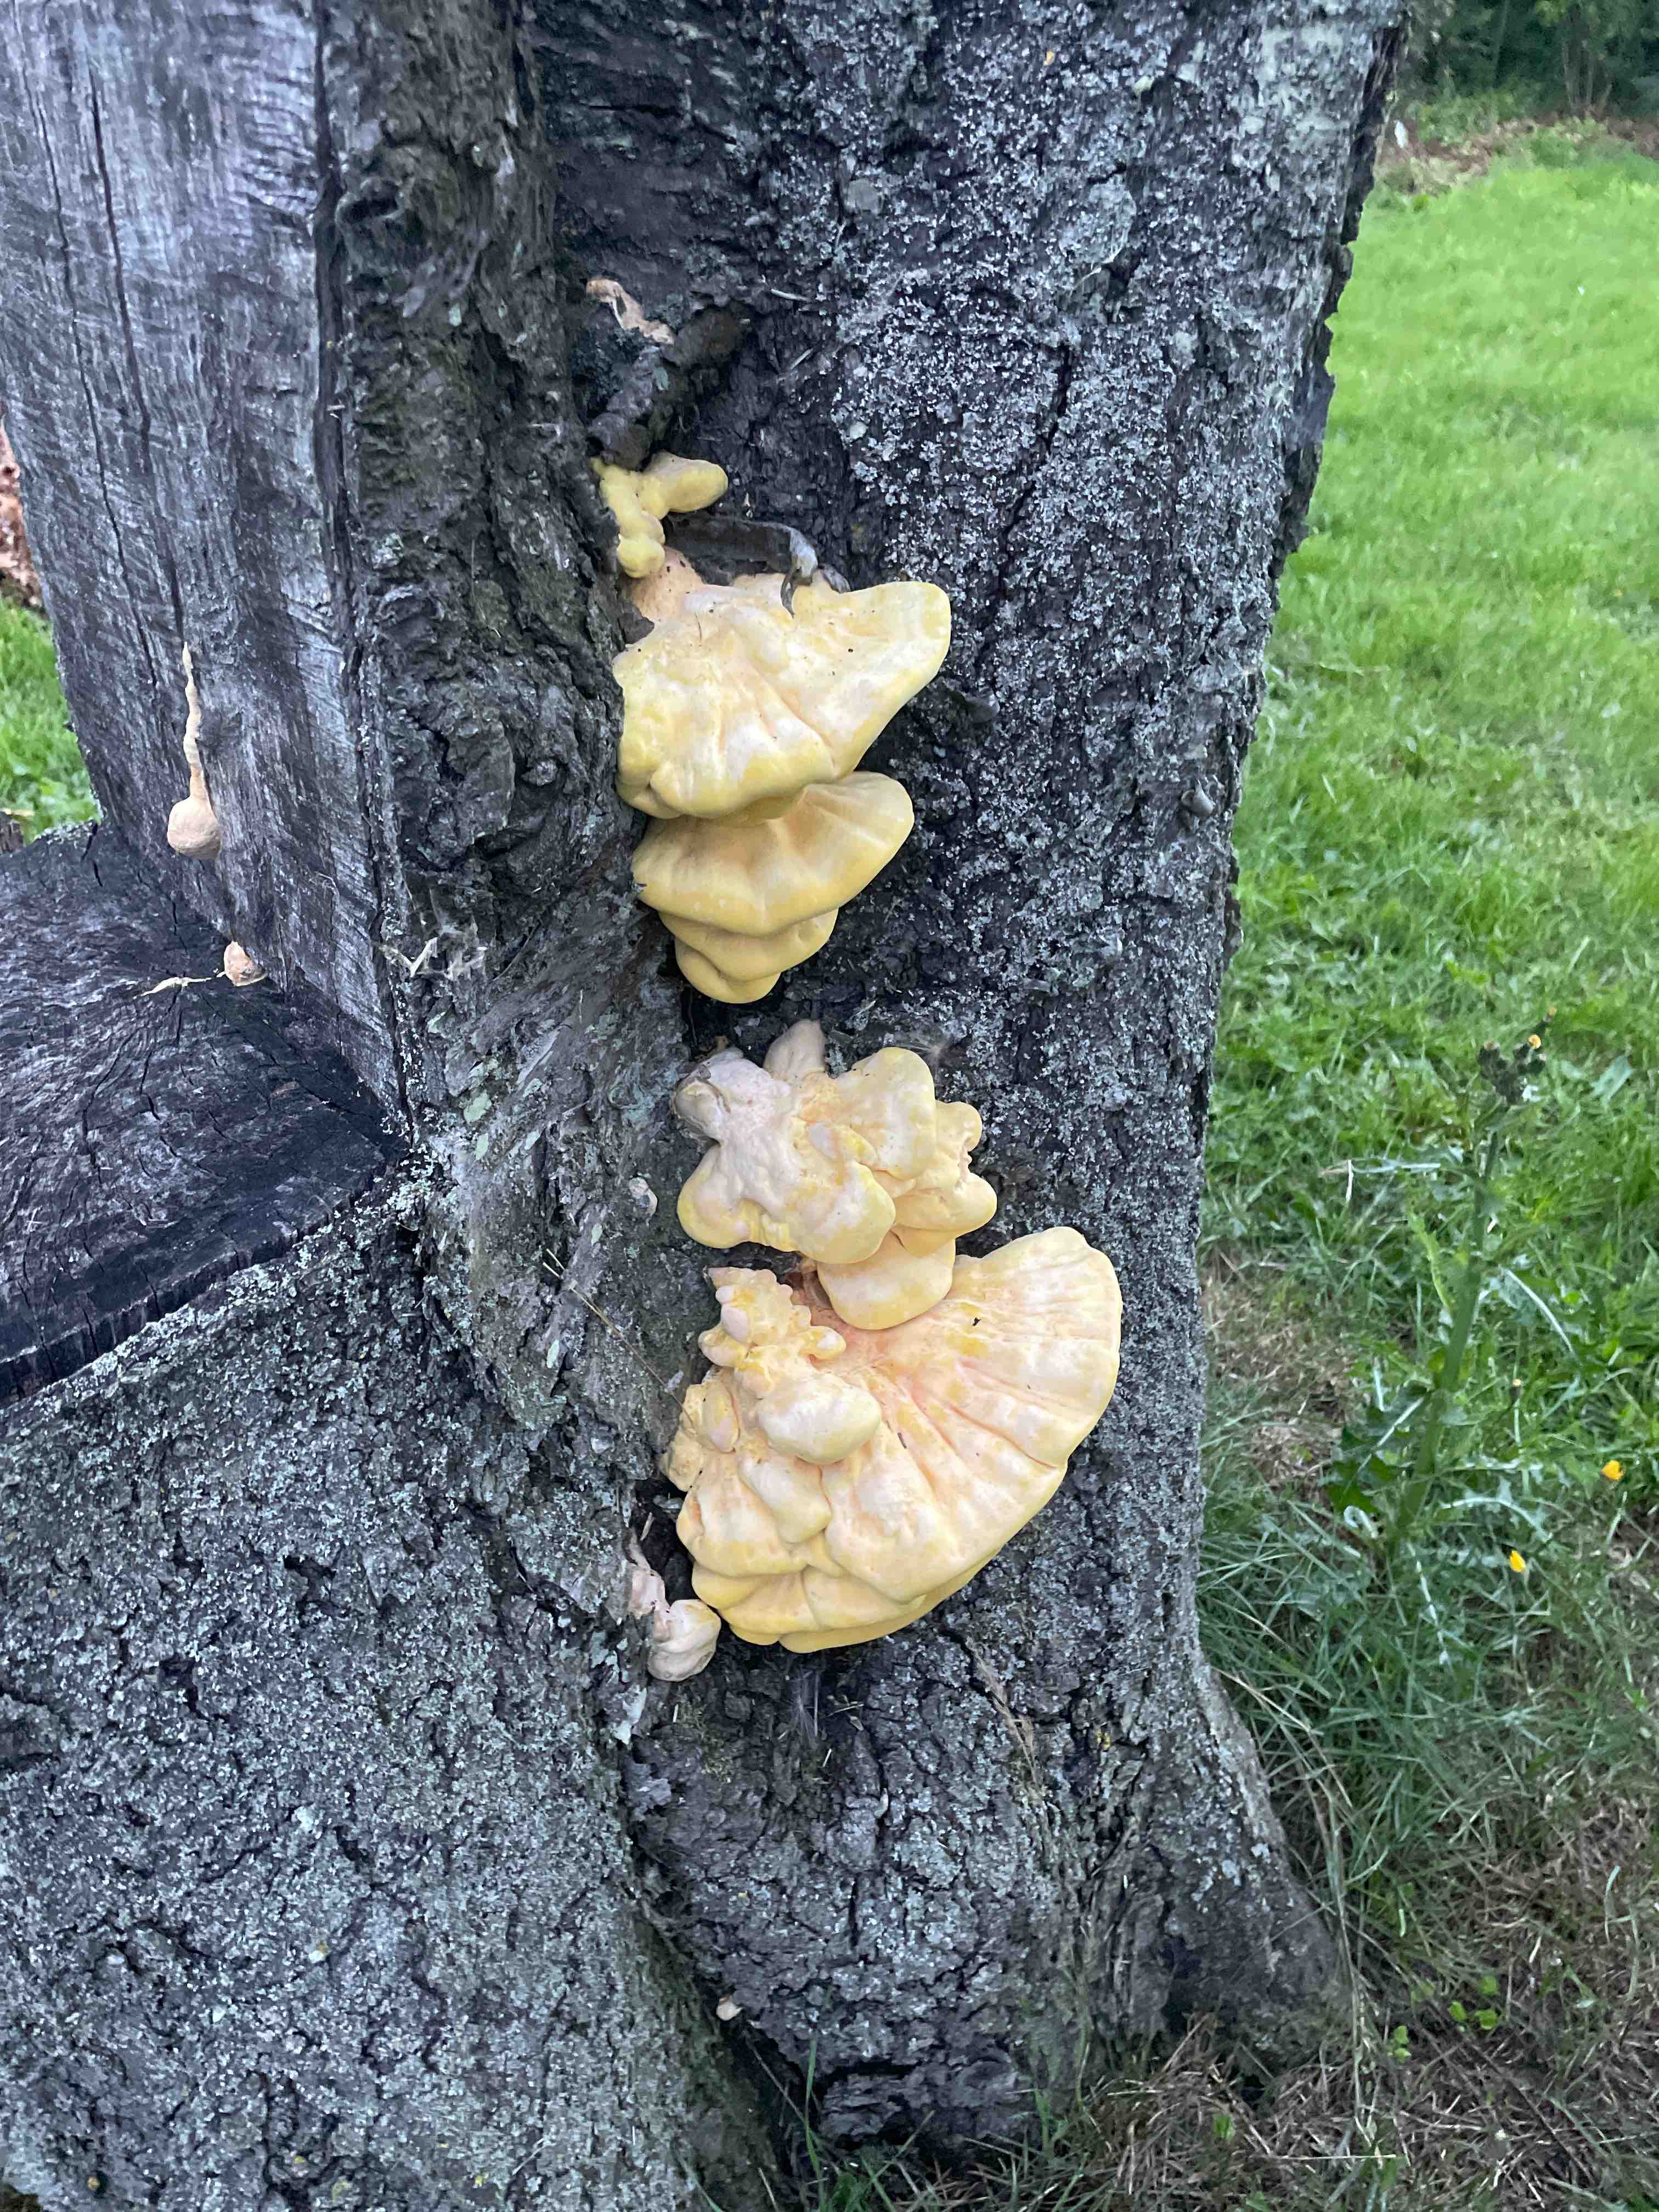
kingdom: Fungi
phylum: Basidiomycota
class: Agaricomycetes
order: Polyporales
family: Laetiporaceae
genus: Laetiporus
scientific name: Laetiporus sulphureus
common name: svovlporesvamp
